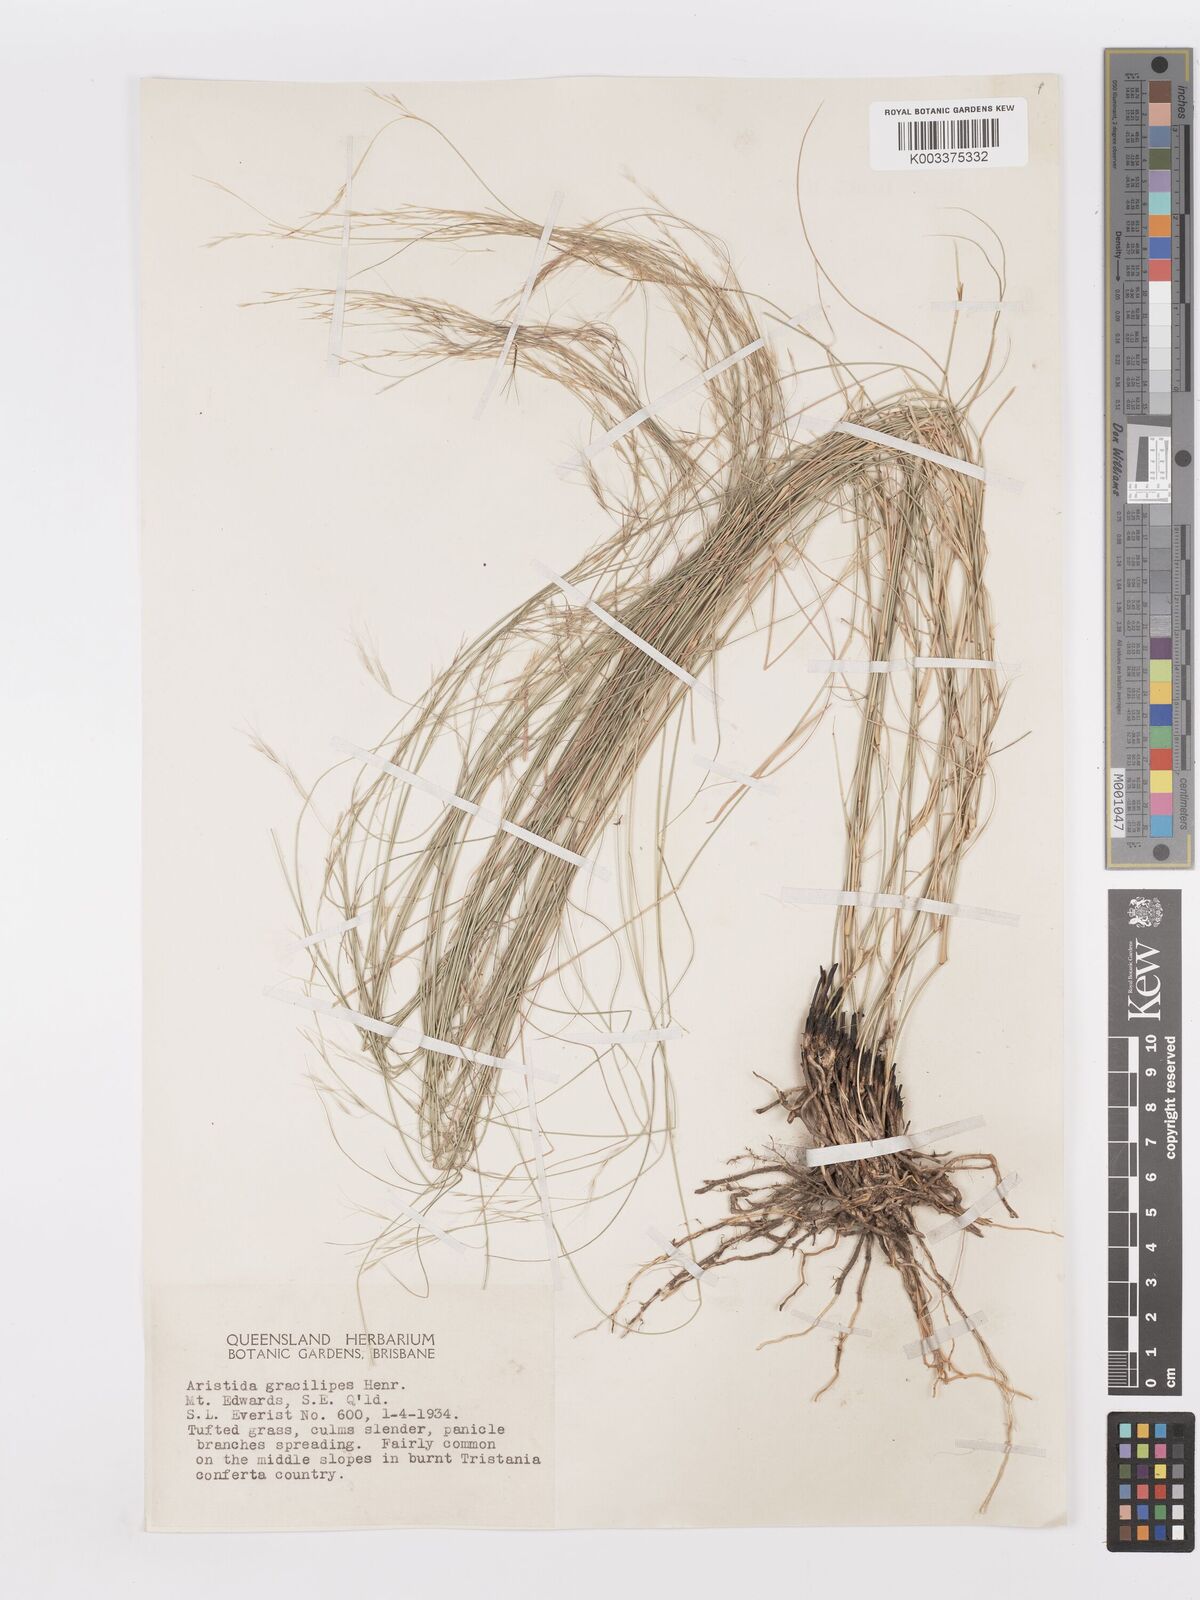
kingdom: Plantae
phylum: Tracheophyta
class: Liliopsida
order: Poales
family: Poaceae
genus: Aristida
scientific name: Aristida gracilipes
